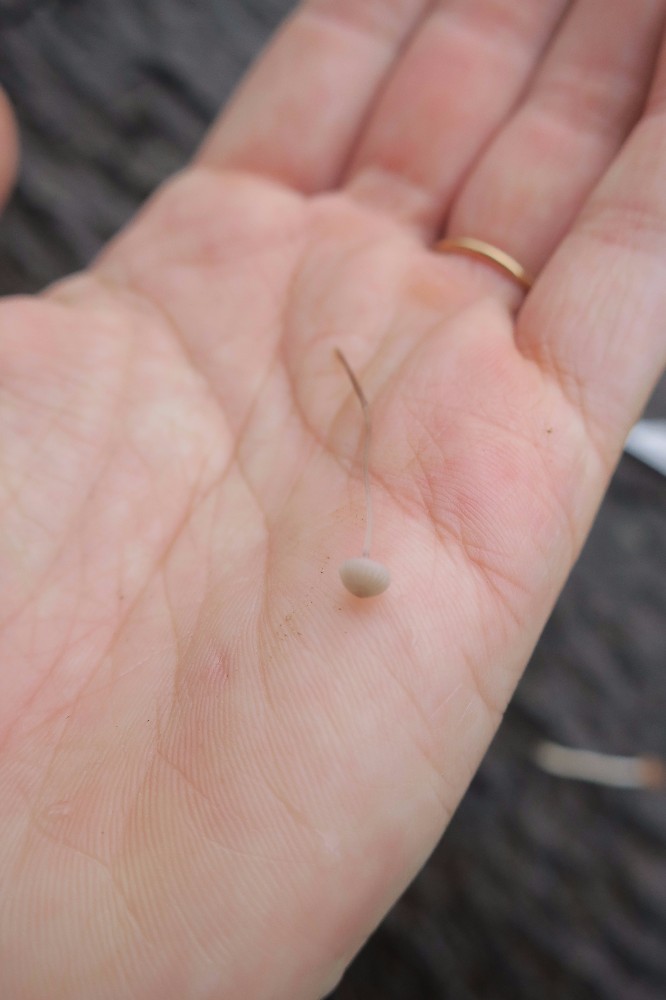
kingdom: Fungi
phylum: Basidiomycota
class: Agaricomycetes
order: Agaricales
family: Mycenaceae
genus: Mycena
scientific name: Mycena
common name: huesvamp
